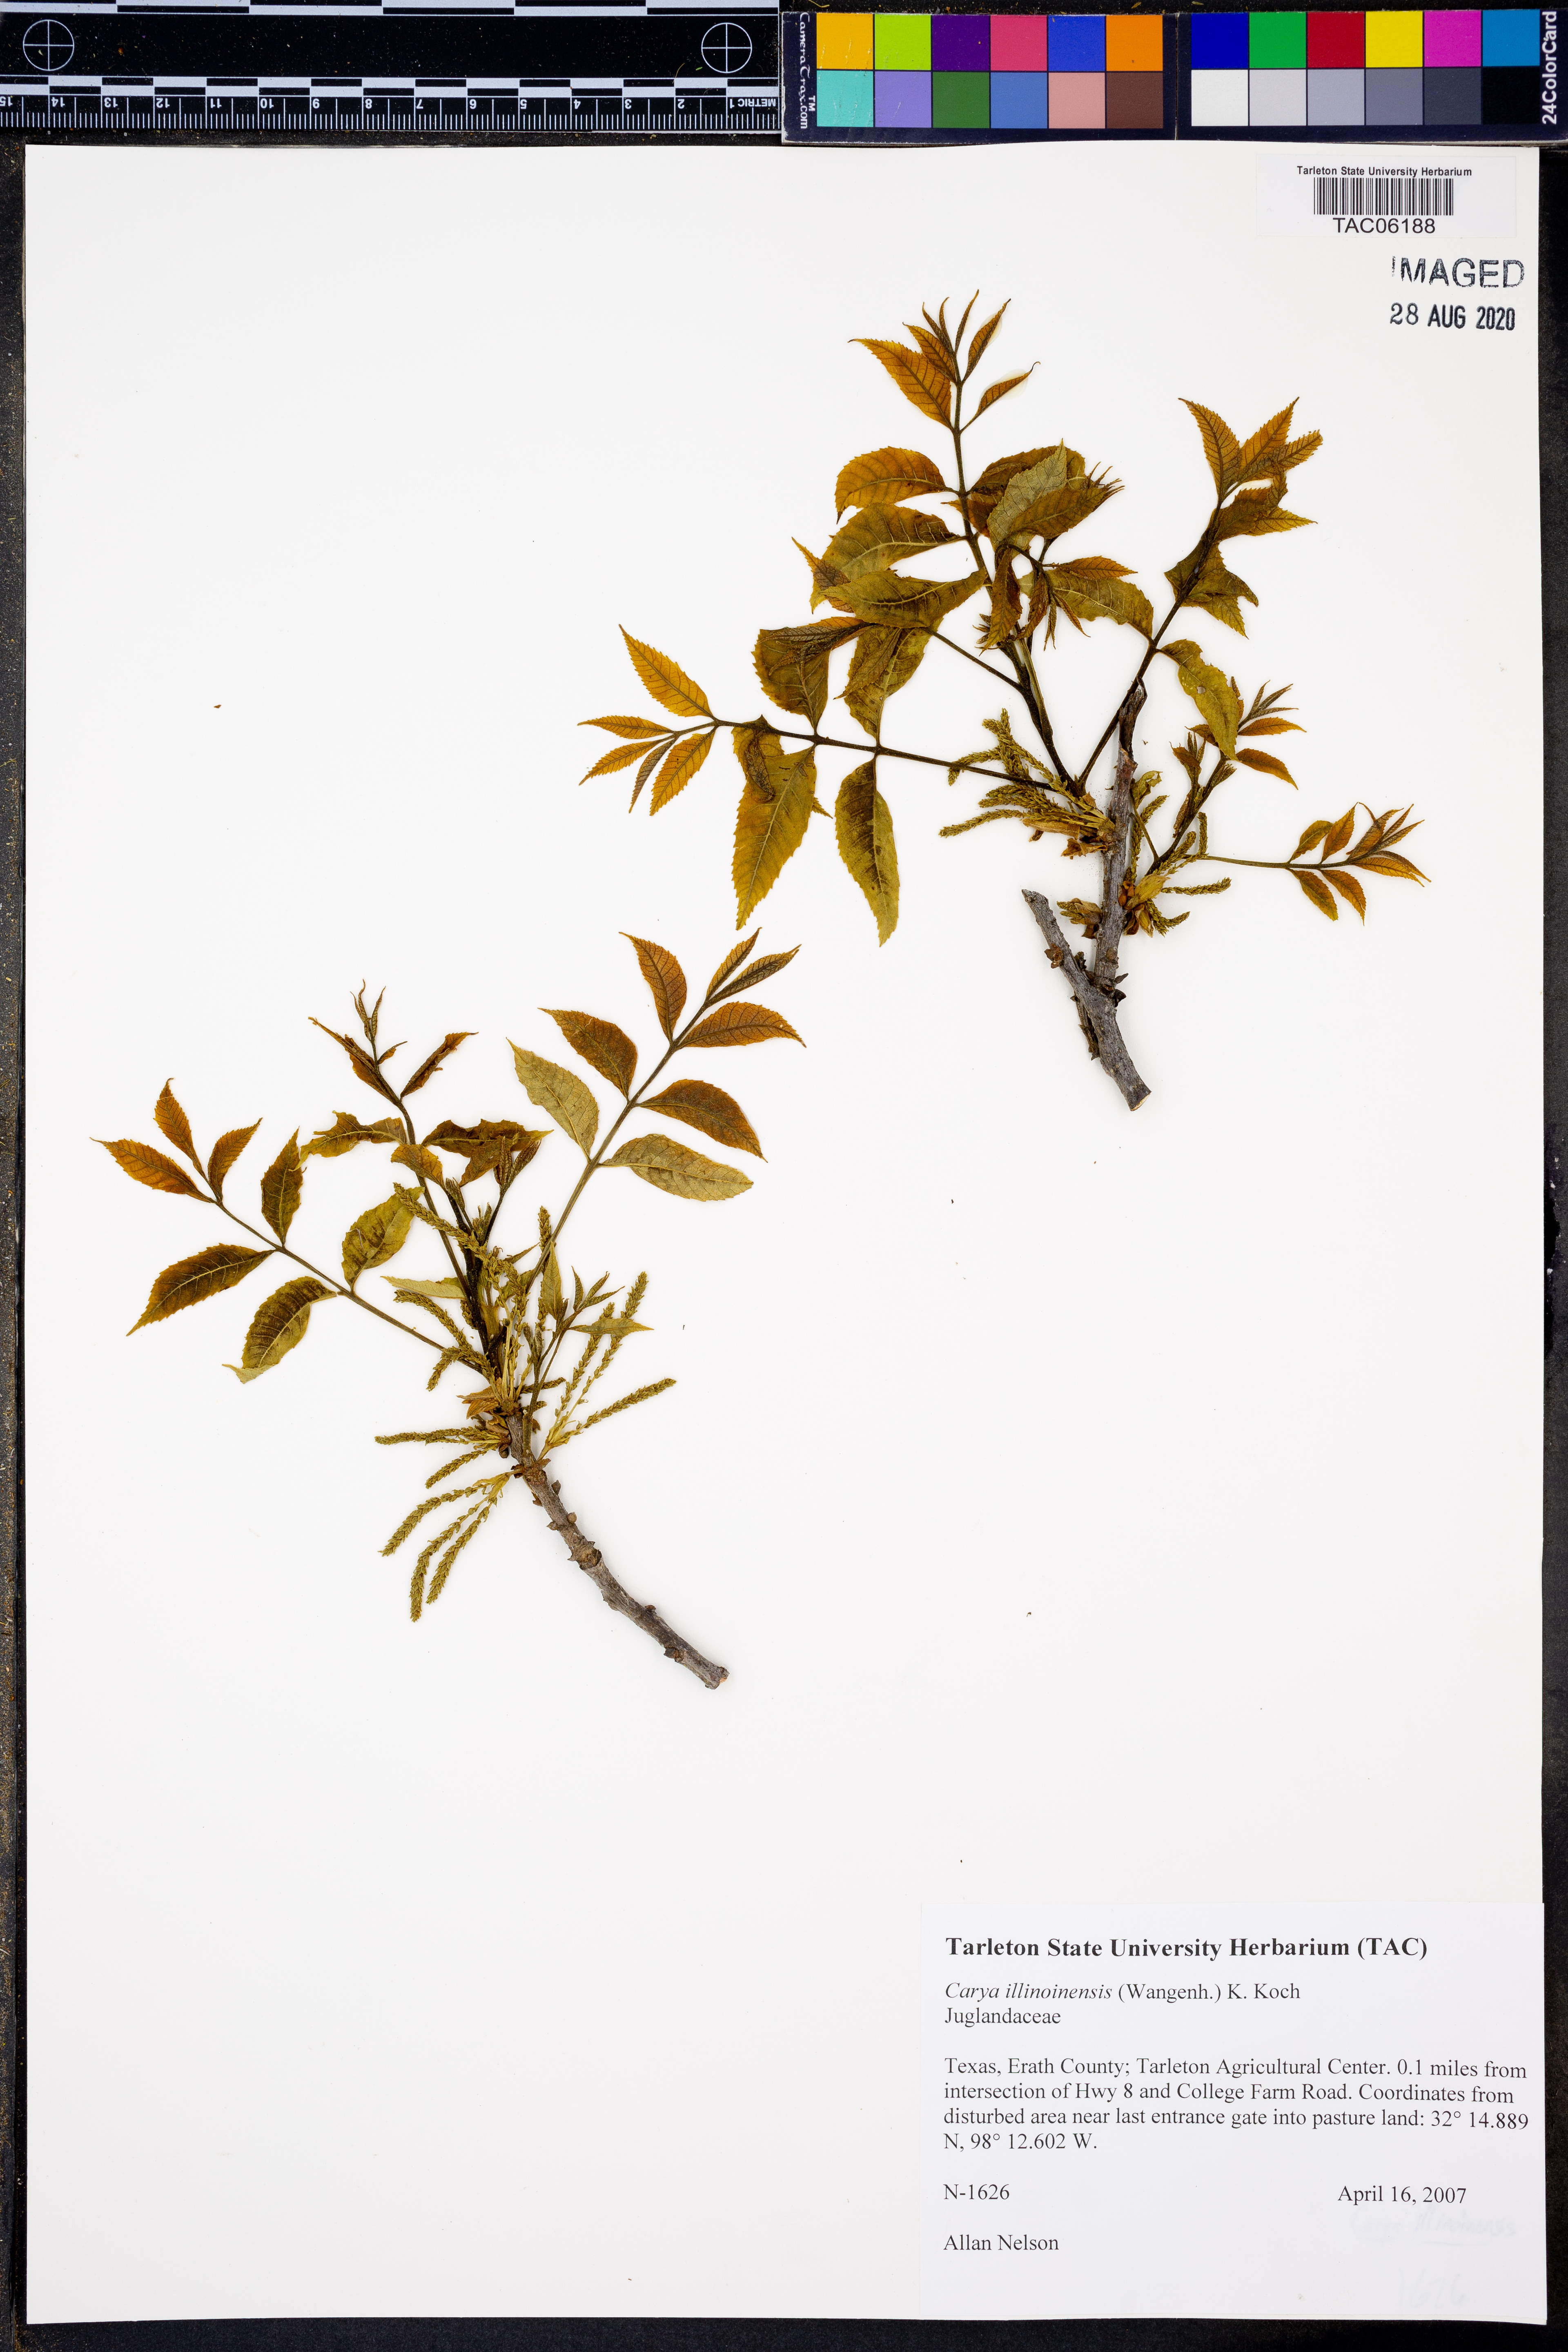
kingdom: Plantae
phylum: Tracheophyta
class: Magnoliopsida
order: Fagales
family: Juglandaceae
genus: Carya
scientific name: Carya illinoinensis
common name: Pecan
